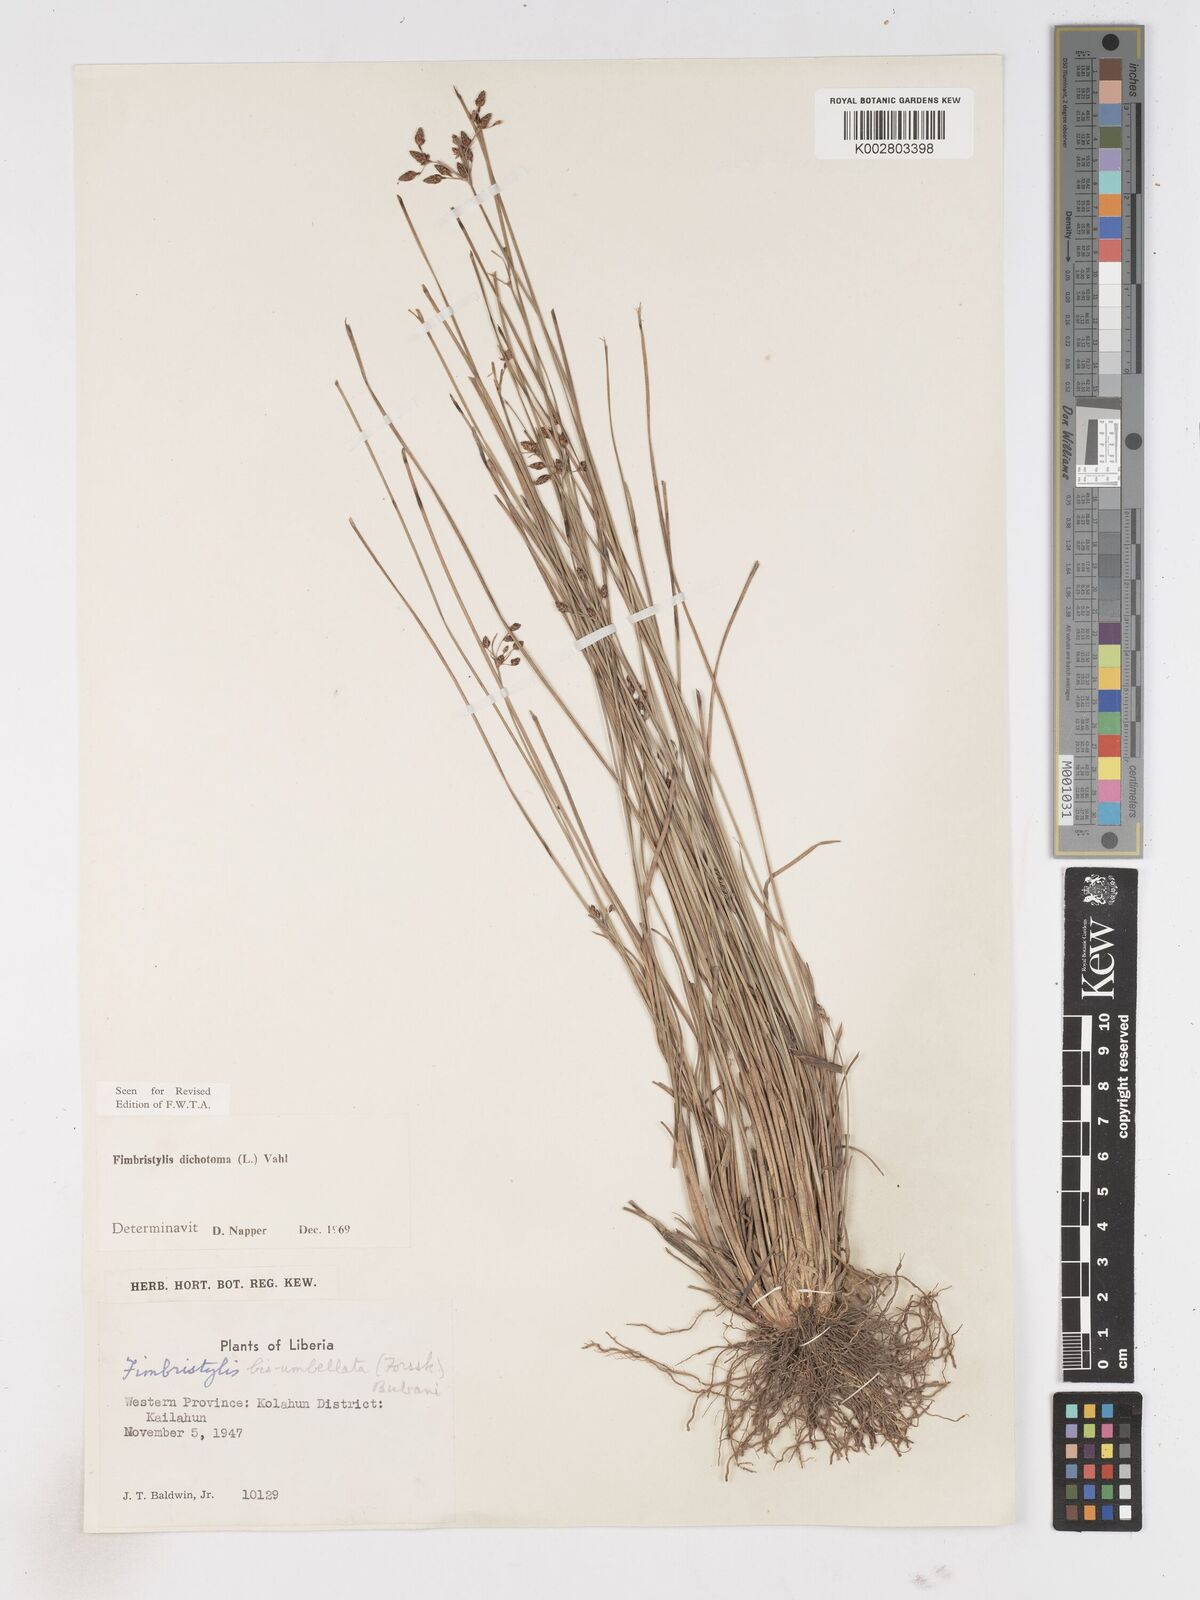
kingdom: Plantae
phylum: Tracheophyta
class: Liliopsida
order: Poales
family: Cyperaceae
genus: Fimbristylis
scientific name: Fimbristylis dichotoma
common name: Forked fimbry
